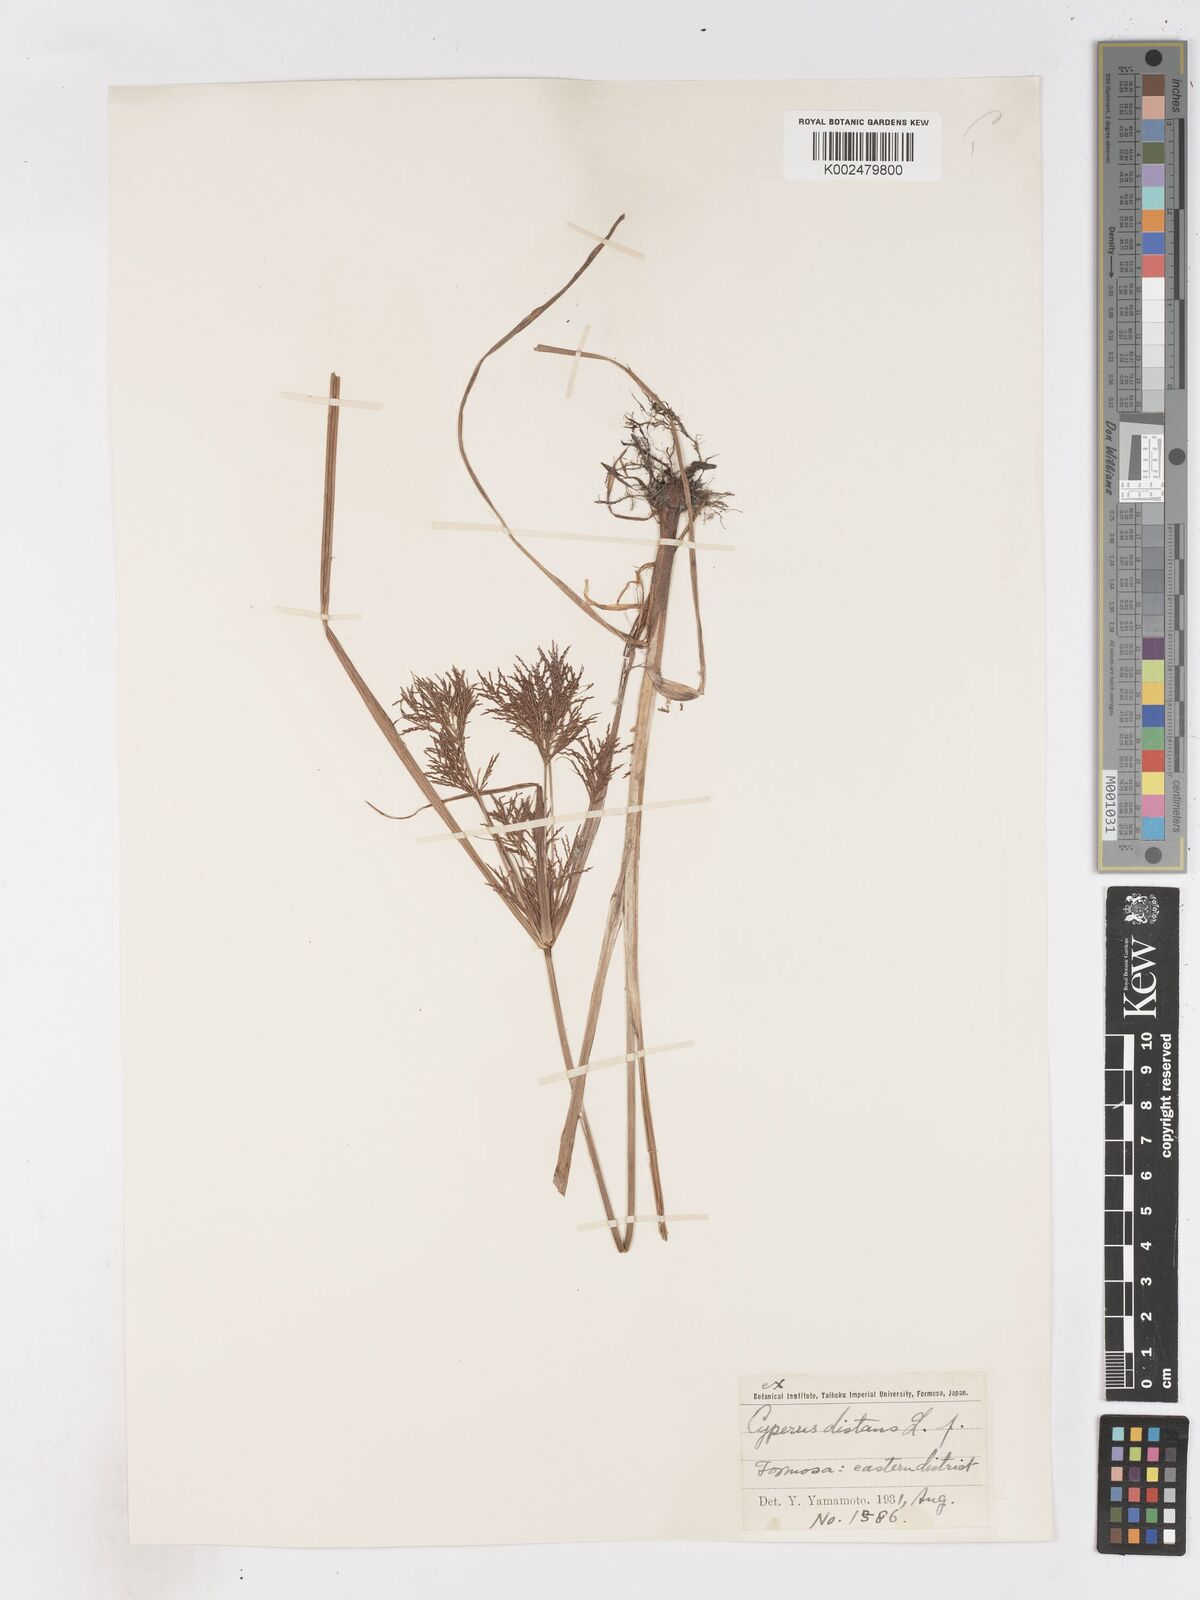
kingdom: Plantae
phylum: Tracheophyta
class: Liliopsida
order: Poales
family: Cyperaceae
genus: Cyperus
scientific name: Cyperus distans
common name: Slender cyperus
